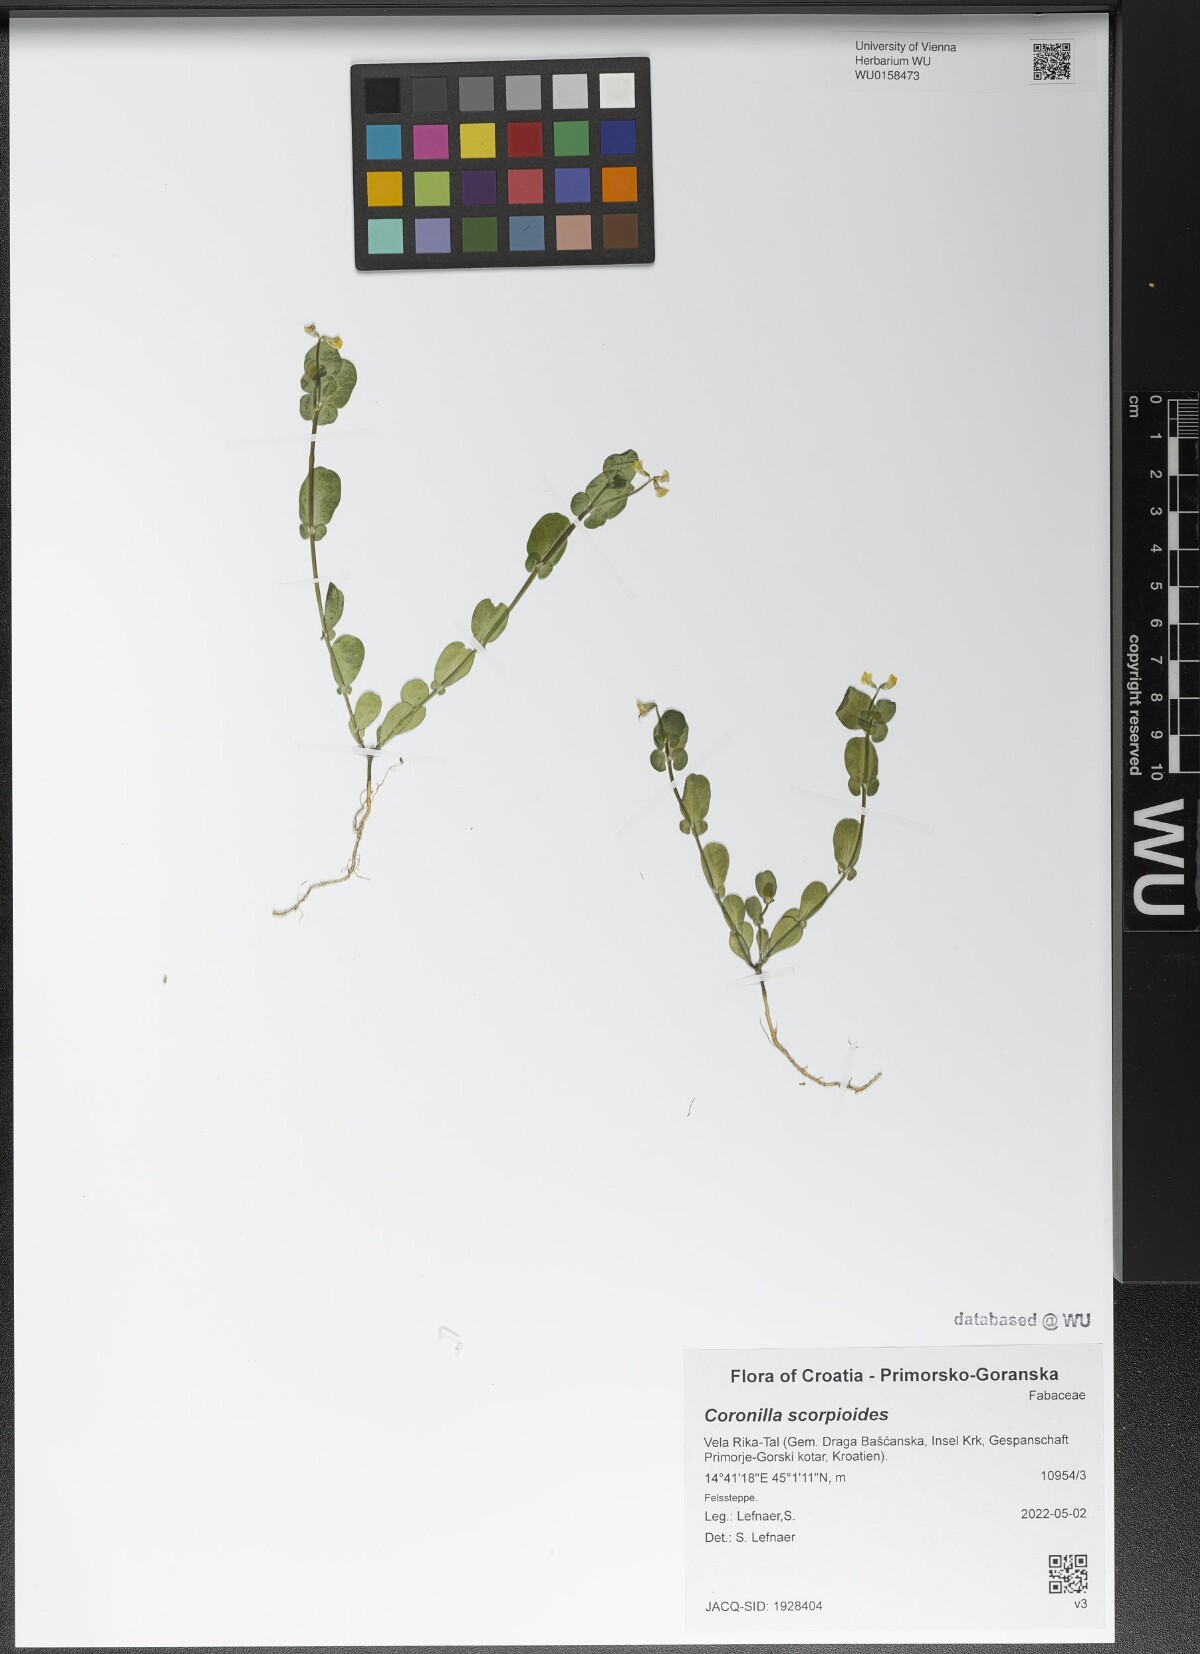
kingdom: Plantae
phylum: Tracheophyta
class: Magnoliopsida
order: Fabales
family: Fabaceae
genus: Coronilla
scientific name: Coronilla scorpioides
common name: Annual scorpion-vetch
